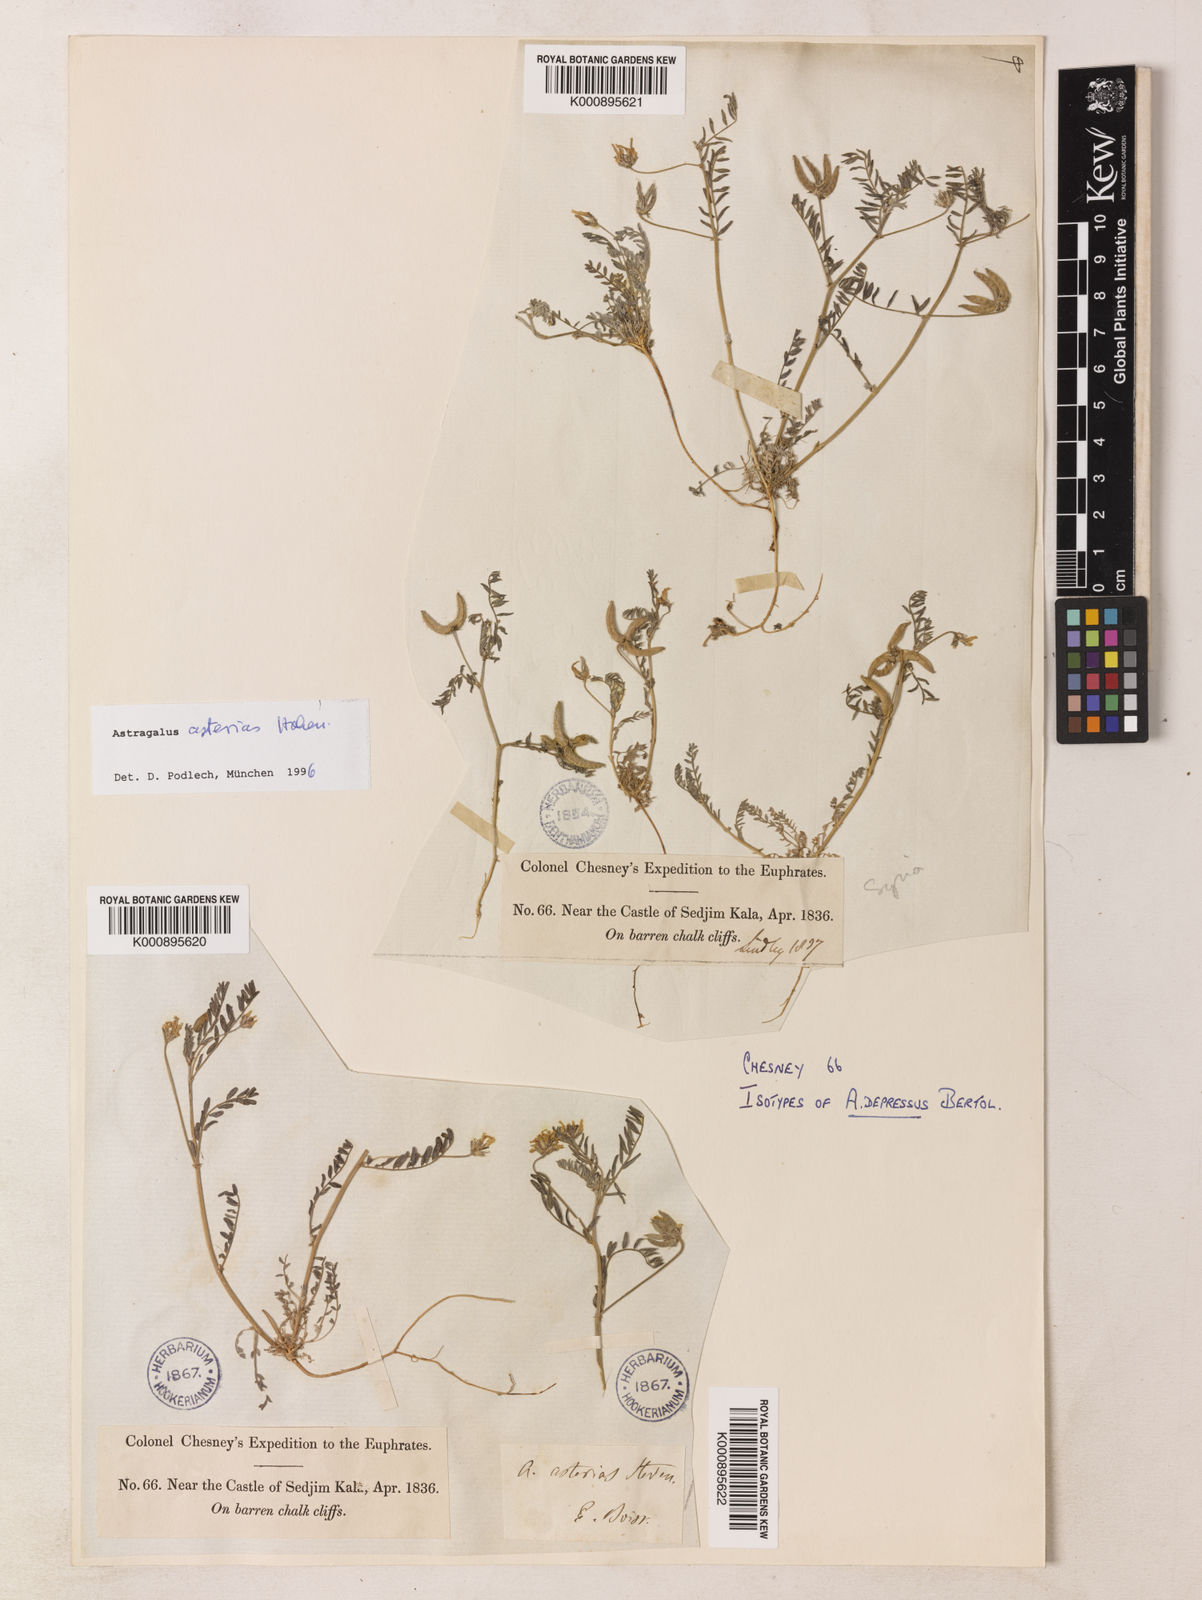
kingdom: Plantae
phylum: Tracheophyta
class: Magnoliopsida
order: Fabales
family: Fabaceae
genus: Astragalus
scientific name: Astragalus
